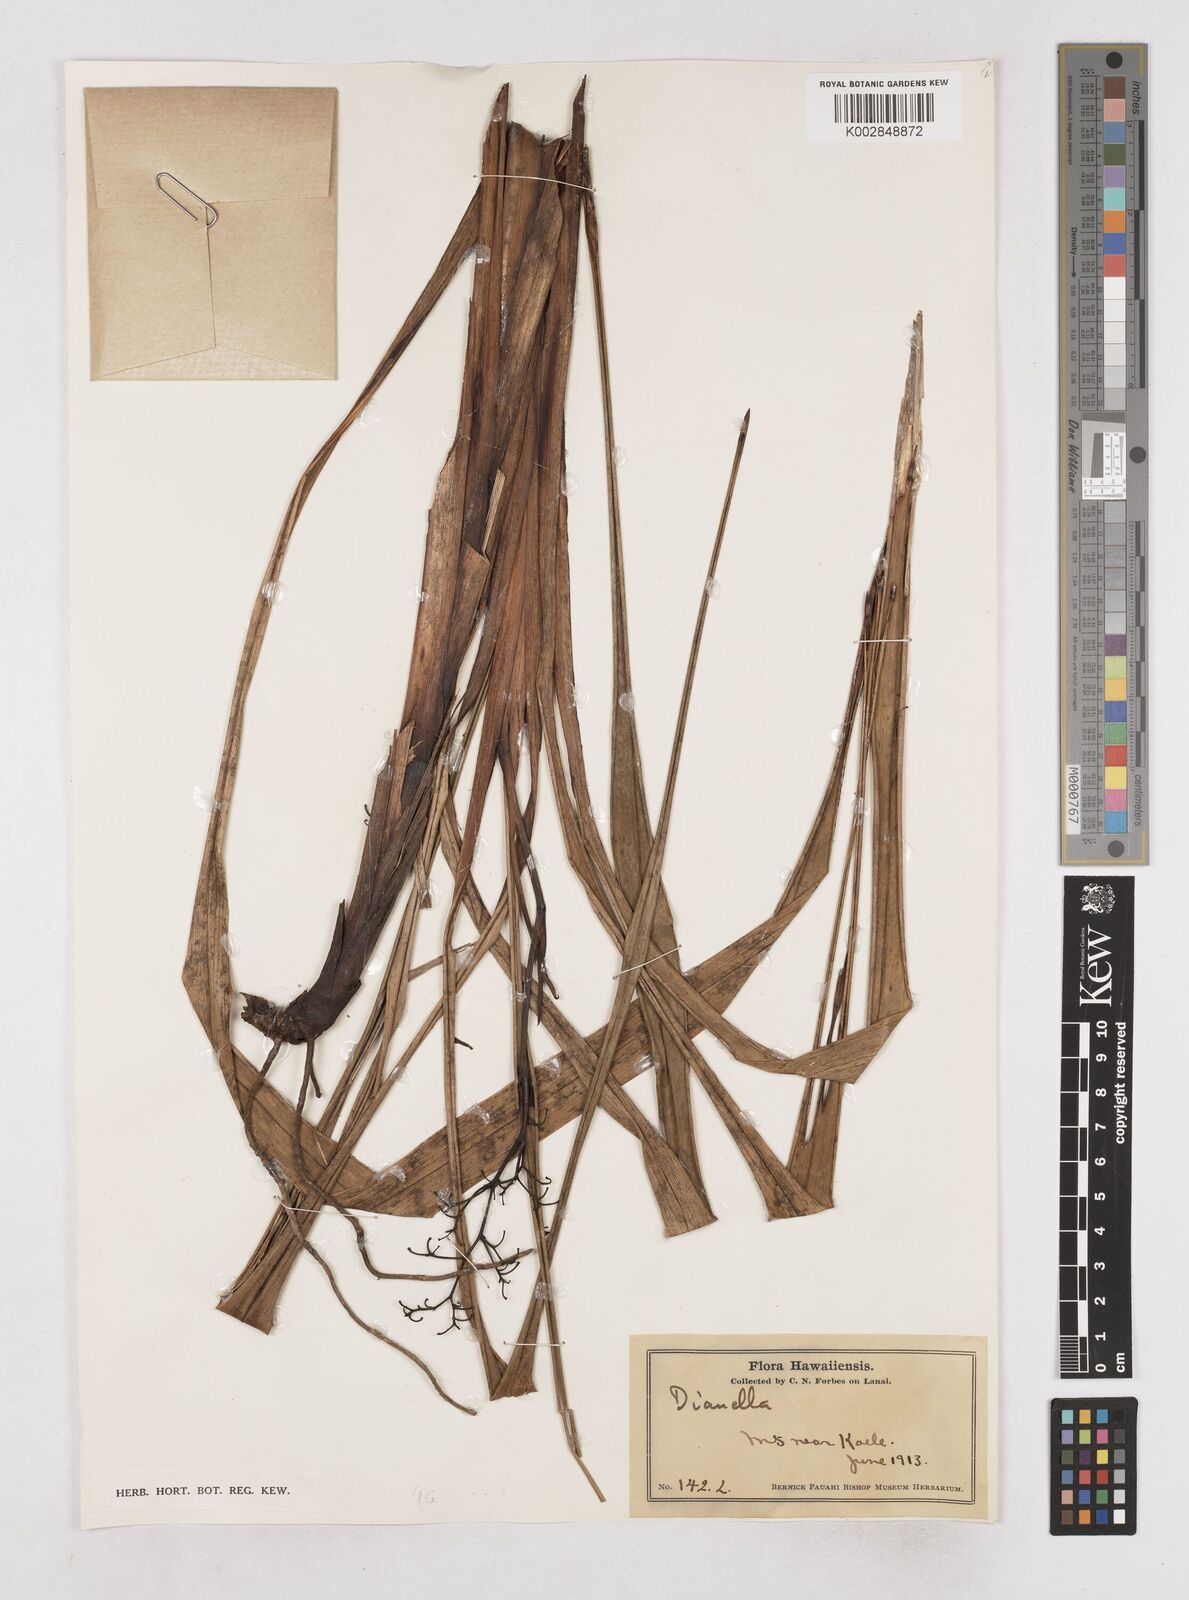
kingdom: Plantae
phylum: Tracheophyta
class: Liliopsida
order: Asparagales
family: Asphodelaceae
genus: Dianella
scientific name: Dianella
